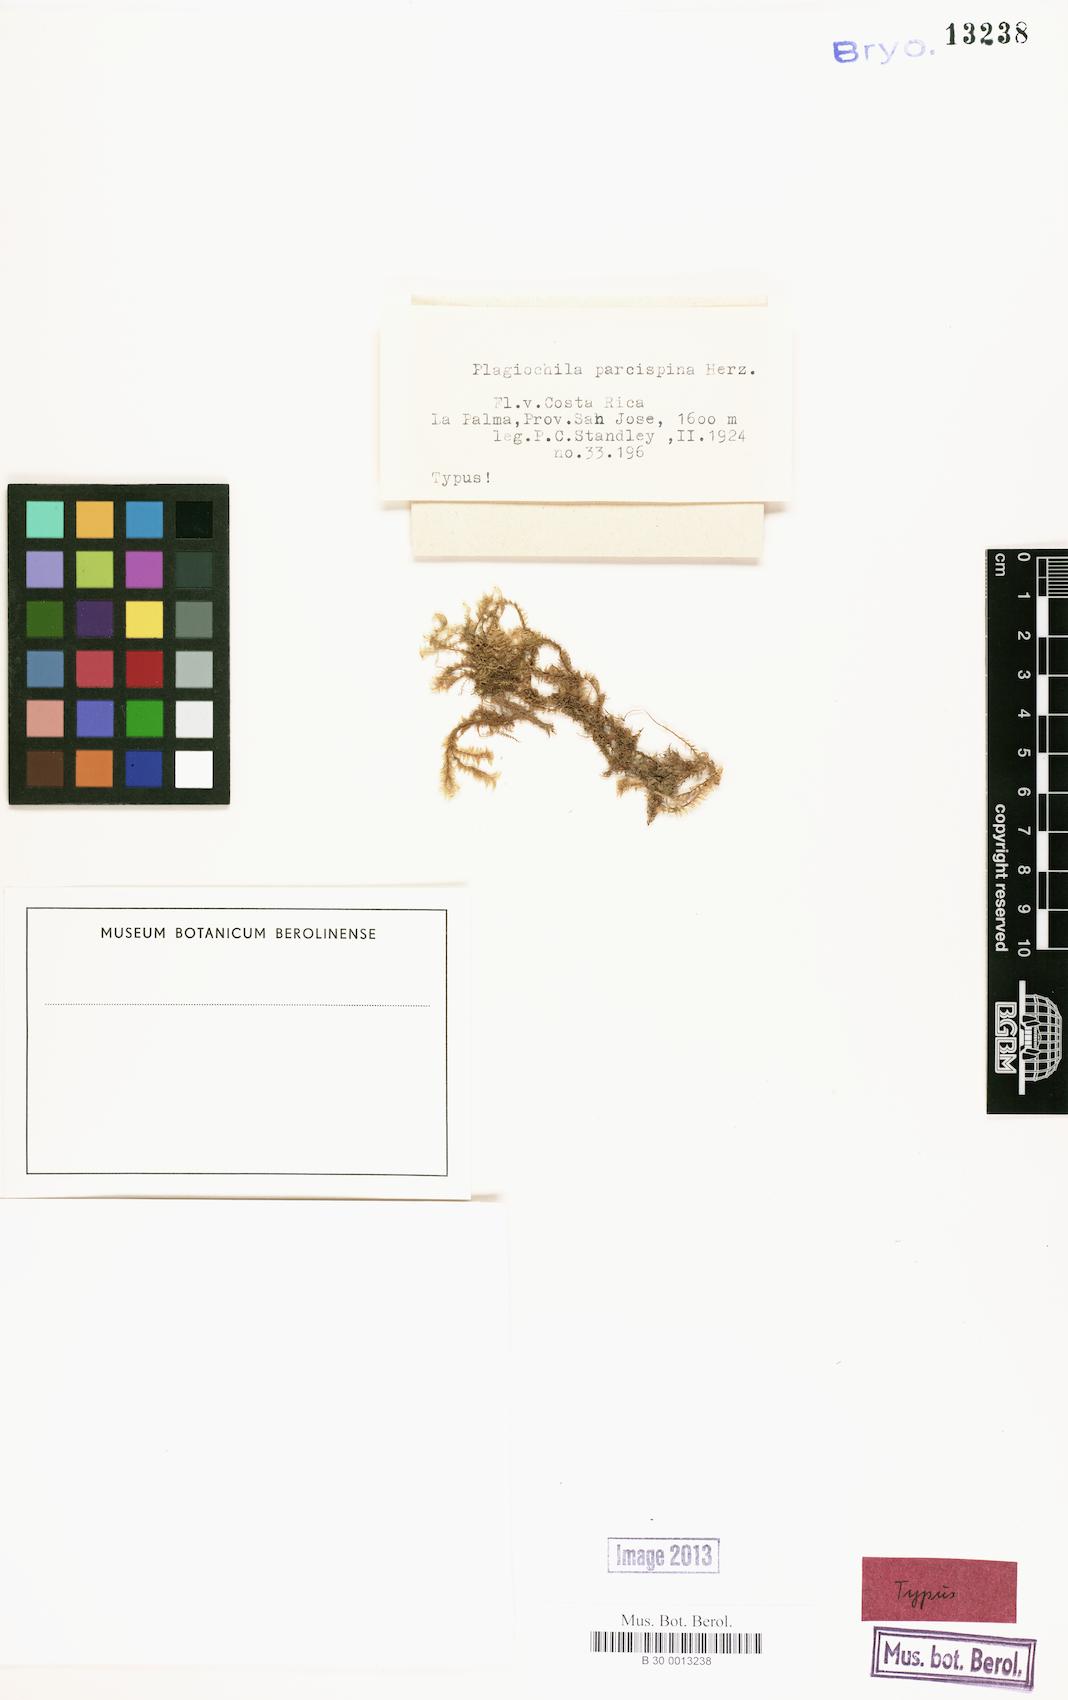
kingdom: Plantae
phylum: Marchantiophyta
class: Jungermanniopsida
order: Jungermanniales
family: Plagiochilaceae
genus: Plagiochila
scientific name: Plagiochila superba
